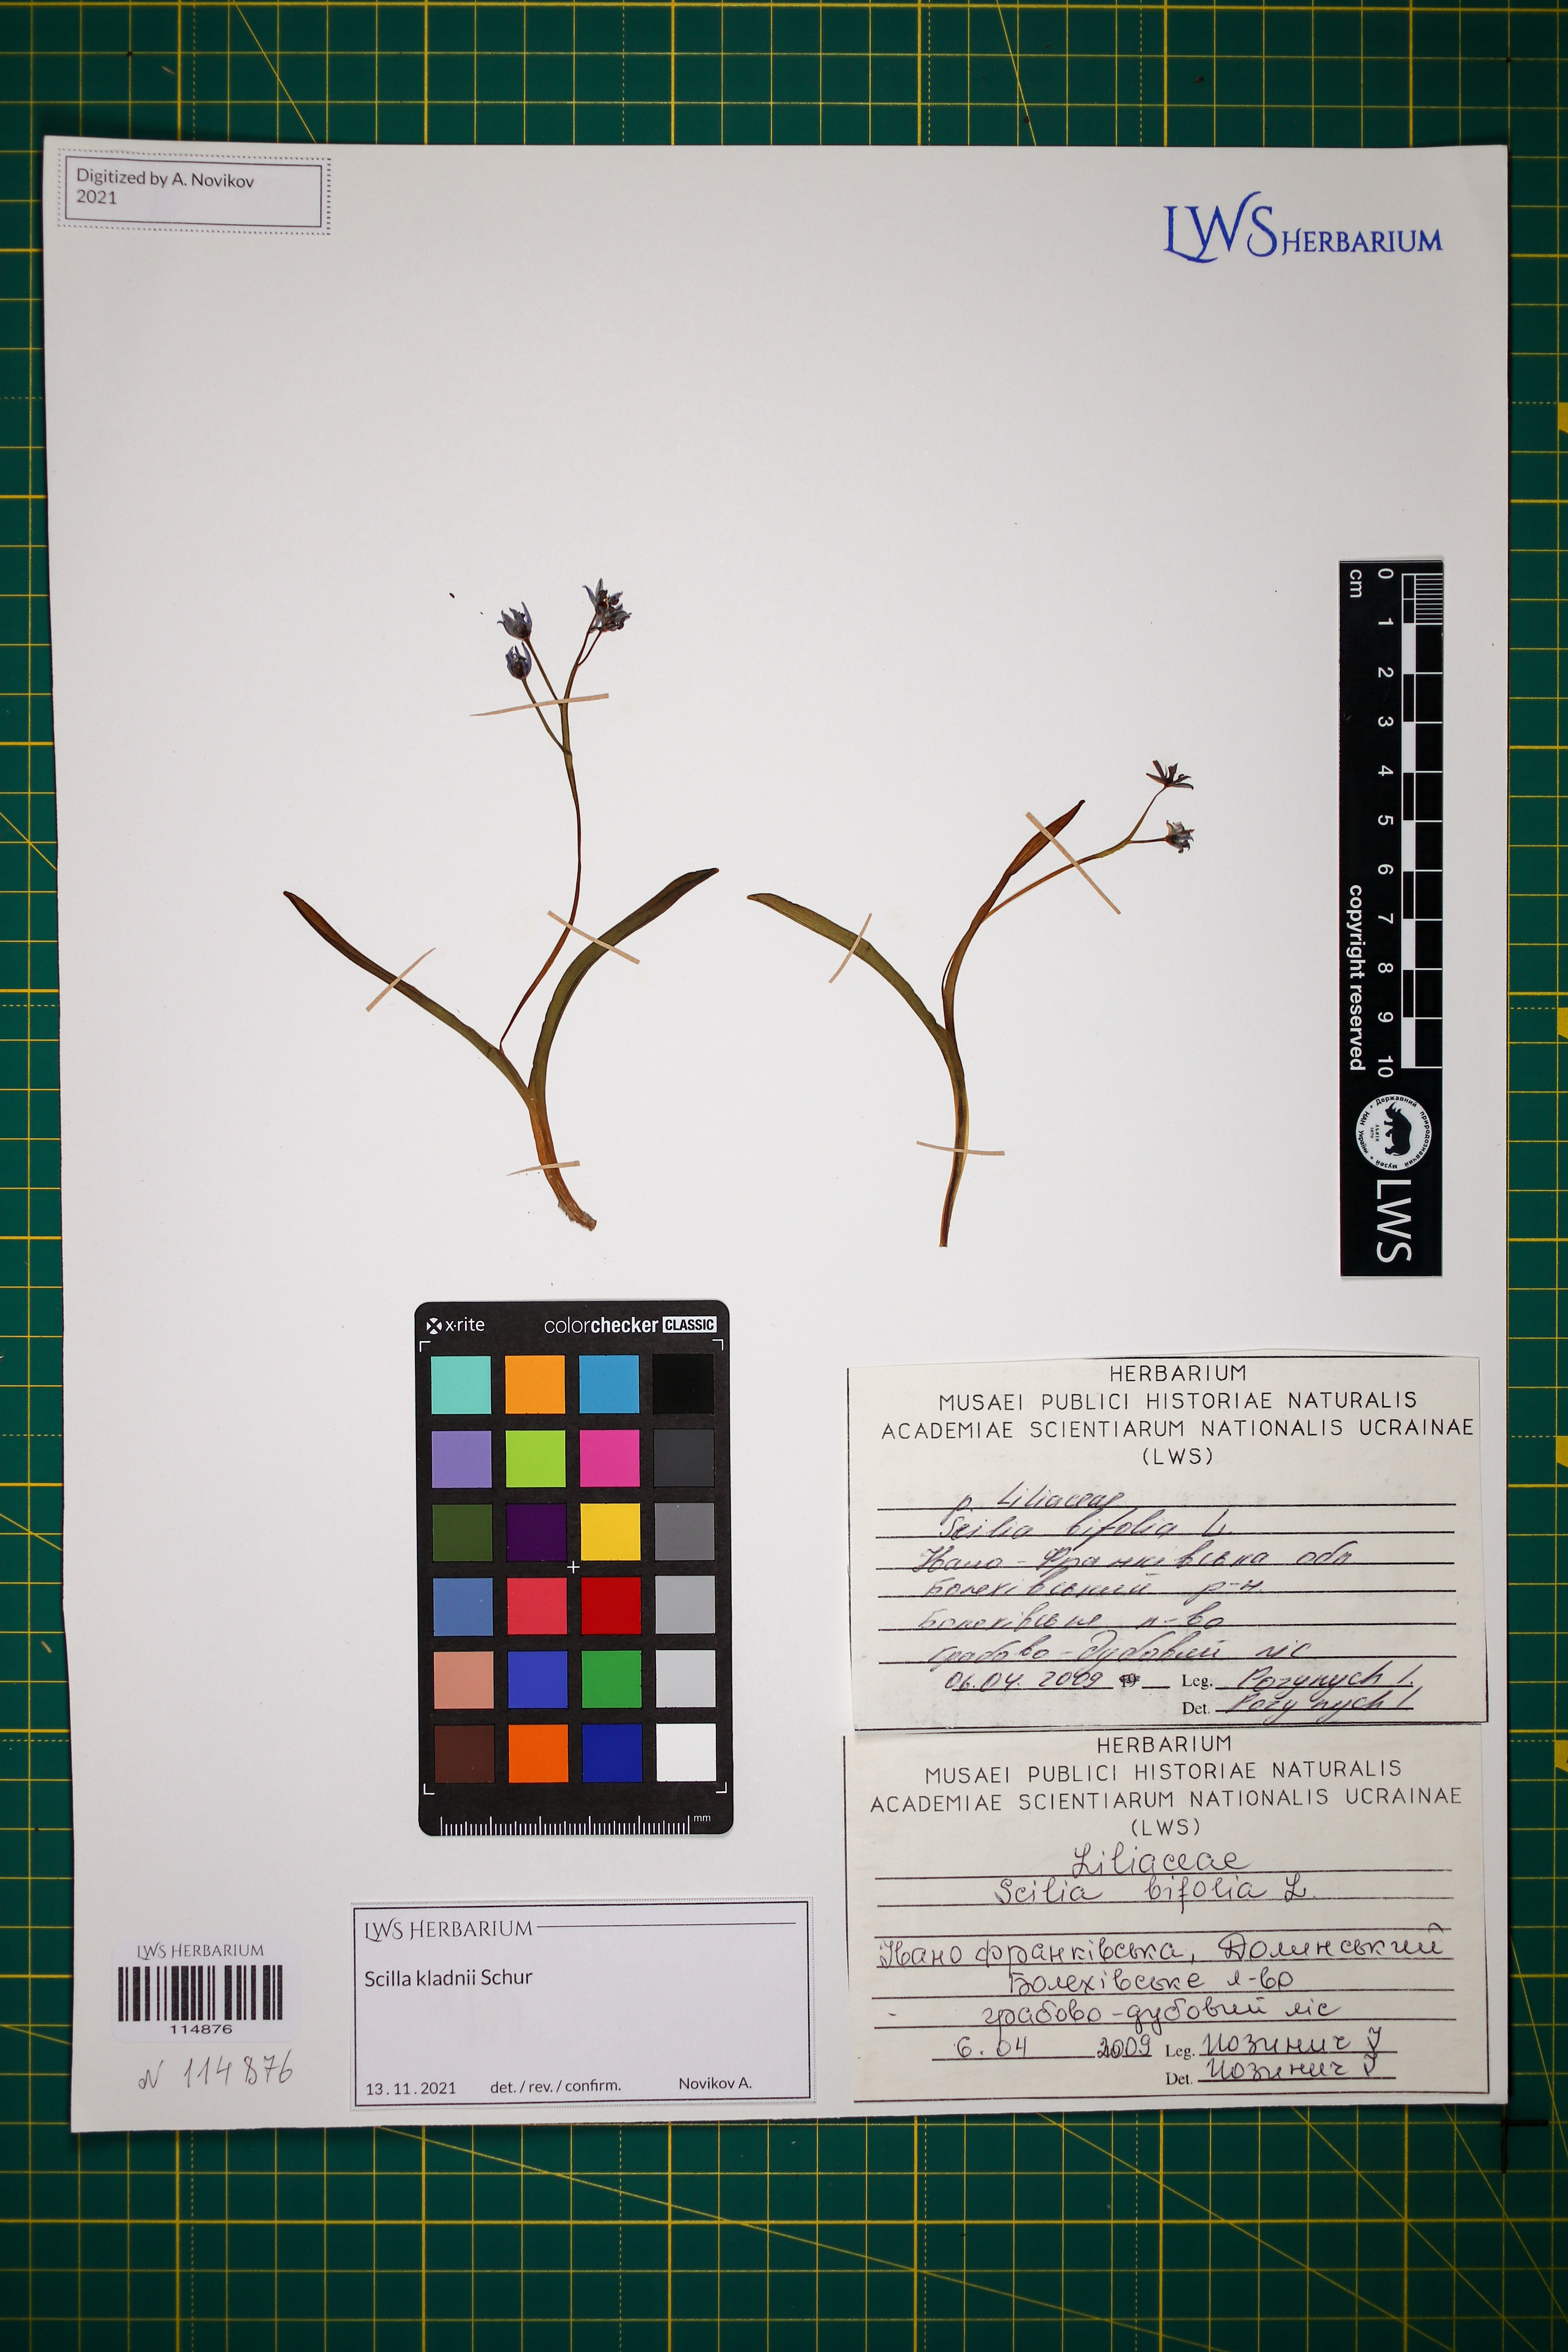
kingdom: Plantae
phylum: Tracheophyta
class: Liliopsida
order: Asparagales
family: Asparagaceae
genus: Scilla
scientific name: Scilla kladnii
